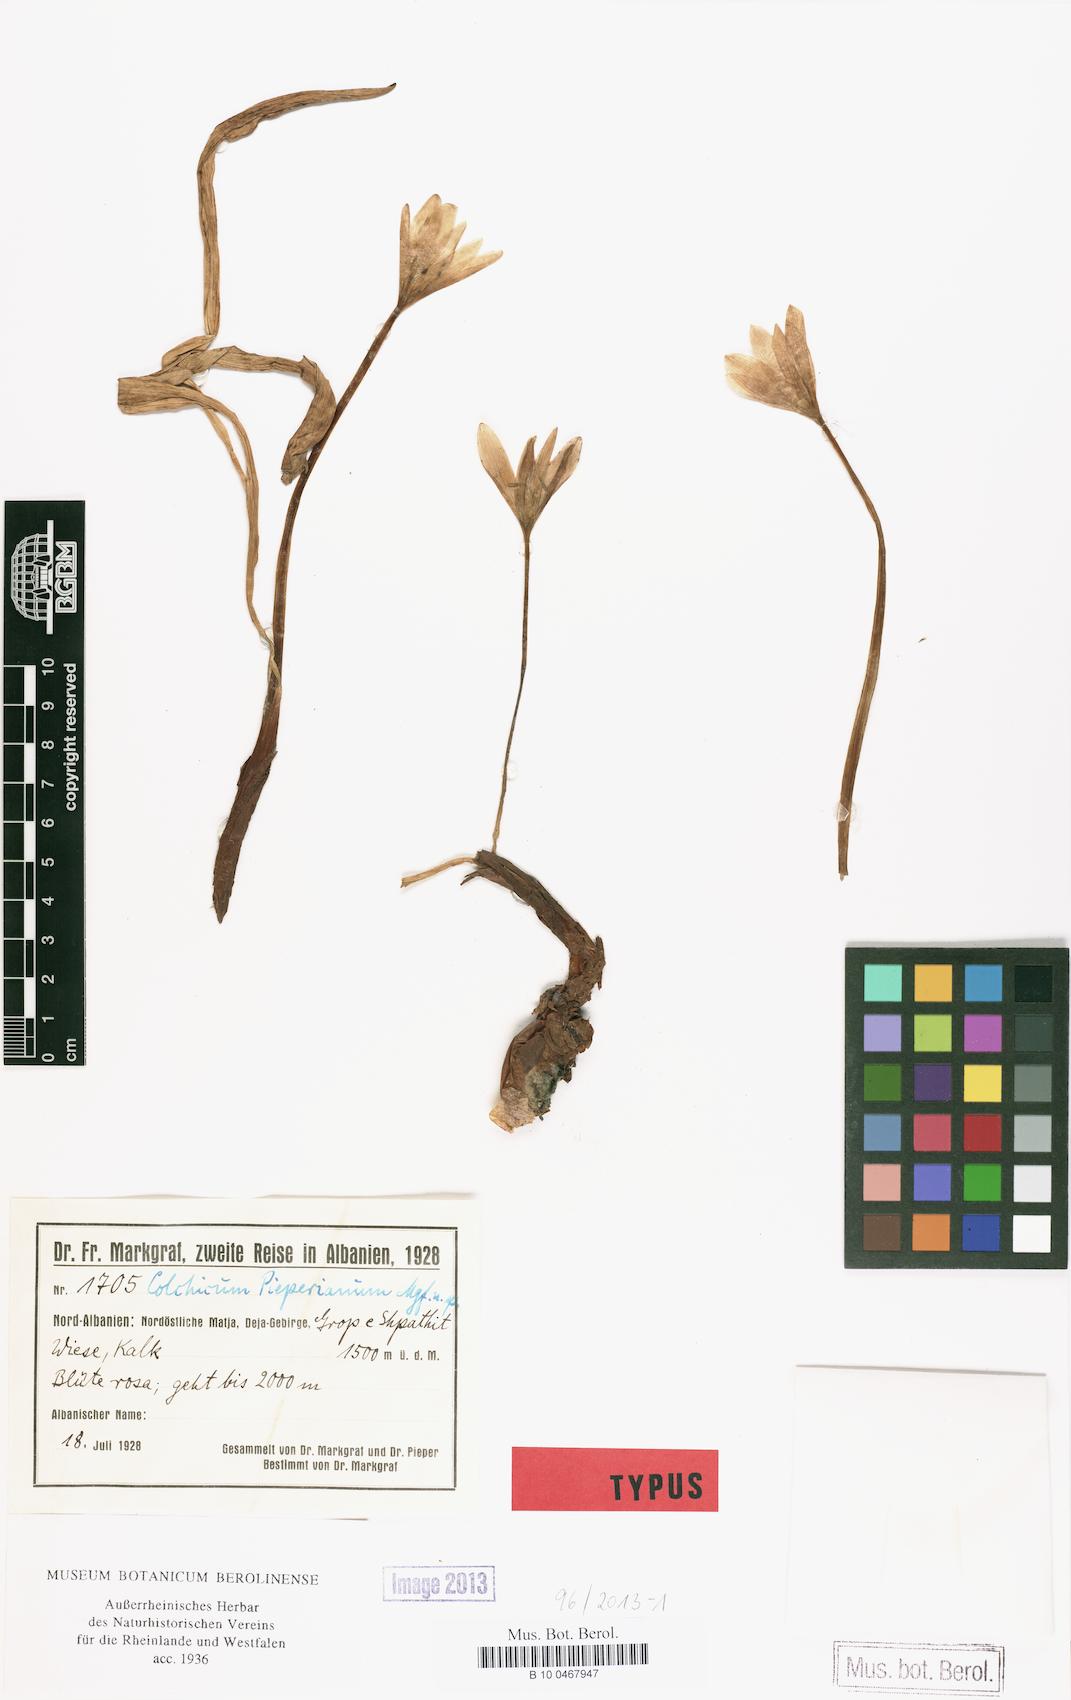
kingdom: Plantae
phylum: Tracheophyta
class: Liliopsida
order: Liliales
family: Colchicaceae
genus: Colchicum
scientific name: Colchicum macedonicum
